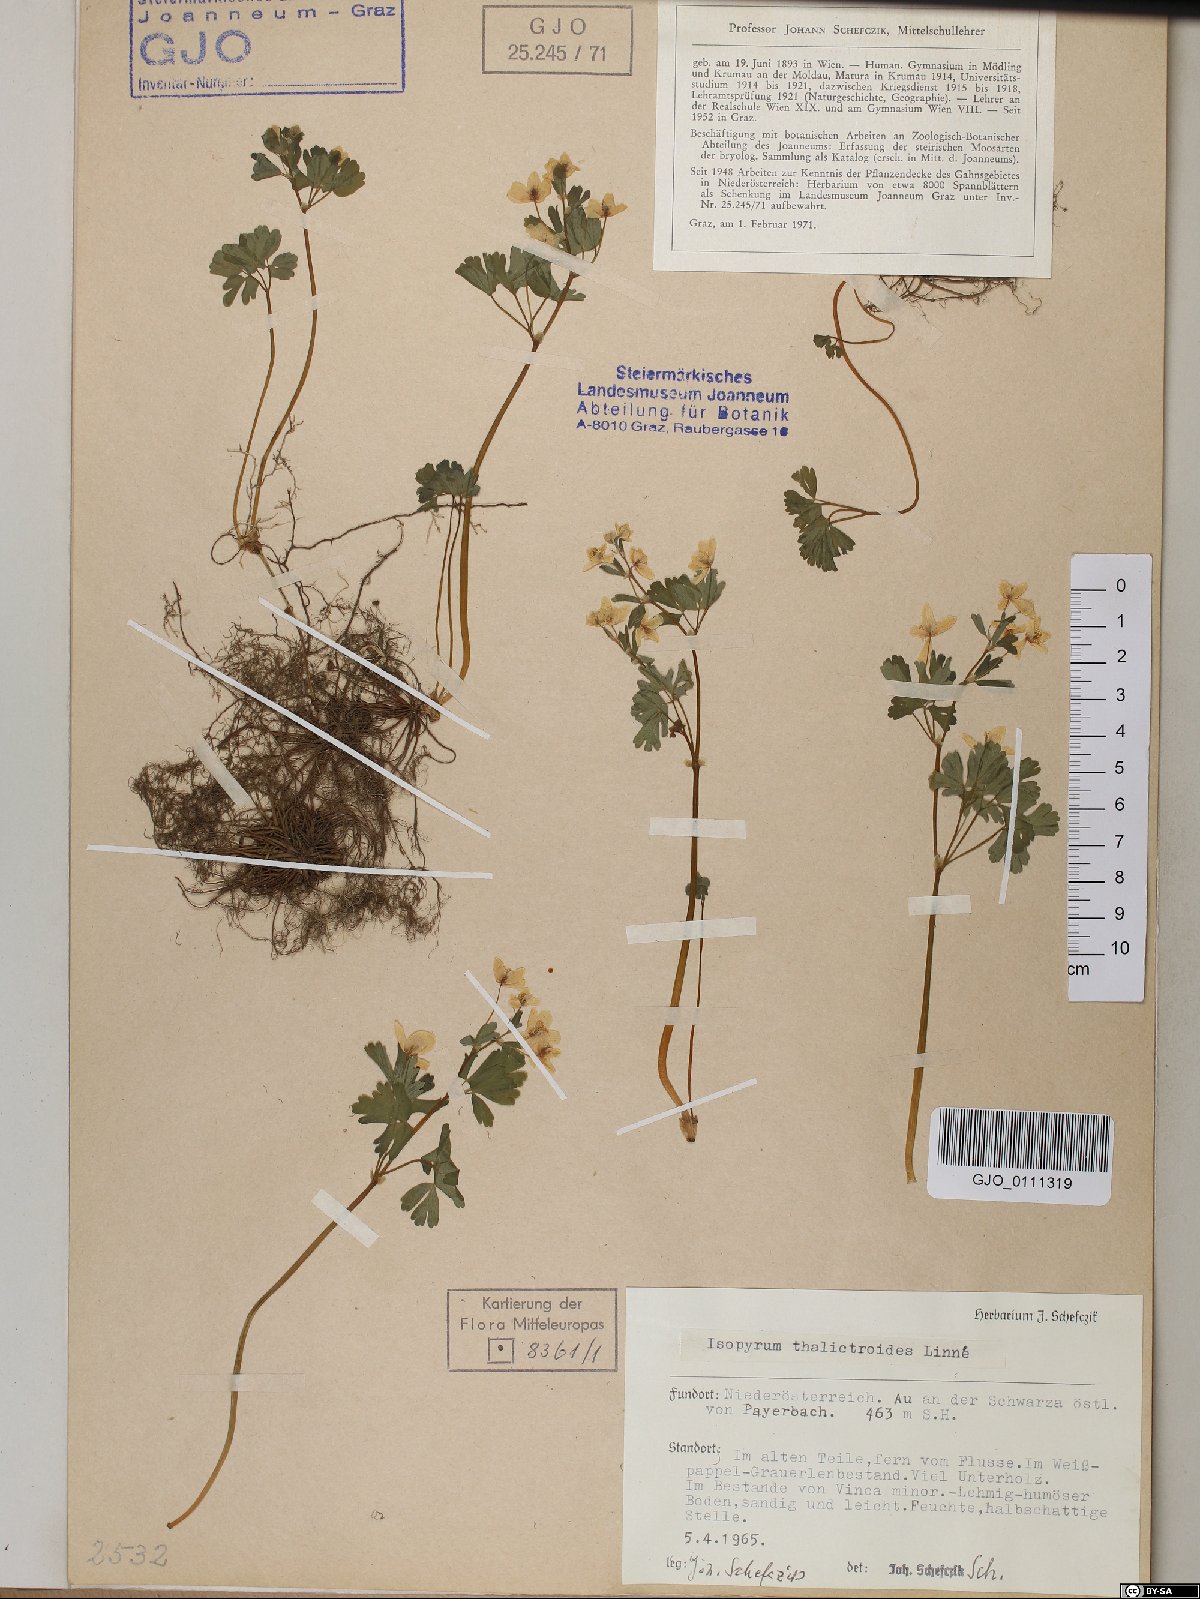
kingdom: Plantae
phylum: Tracheophyta
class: Magnoliopsida
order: Ranunculales
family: Ranunculaceae
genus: Isopyrum
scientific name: Isopyrum thalictroides
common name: Isopyrum
